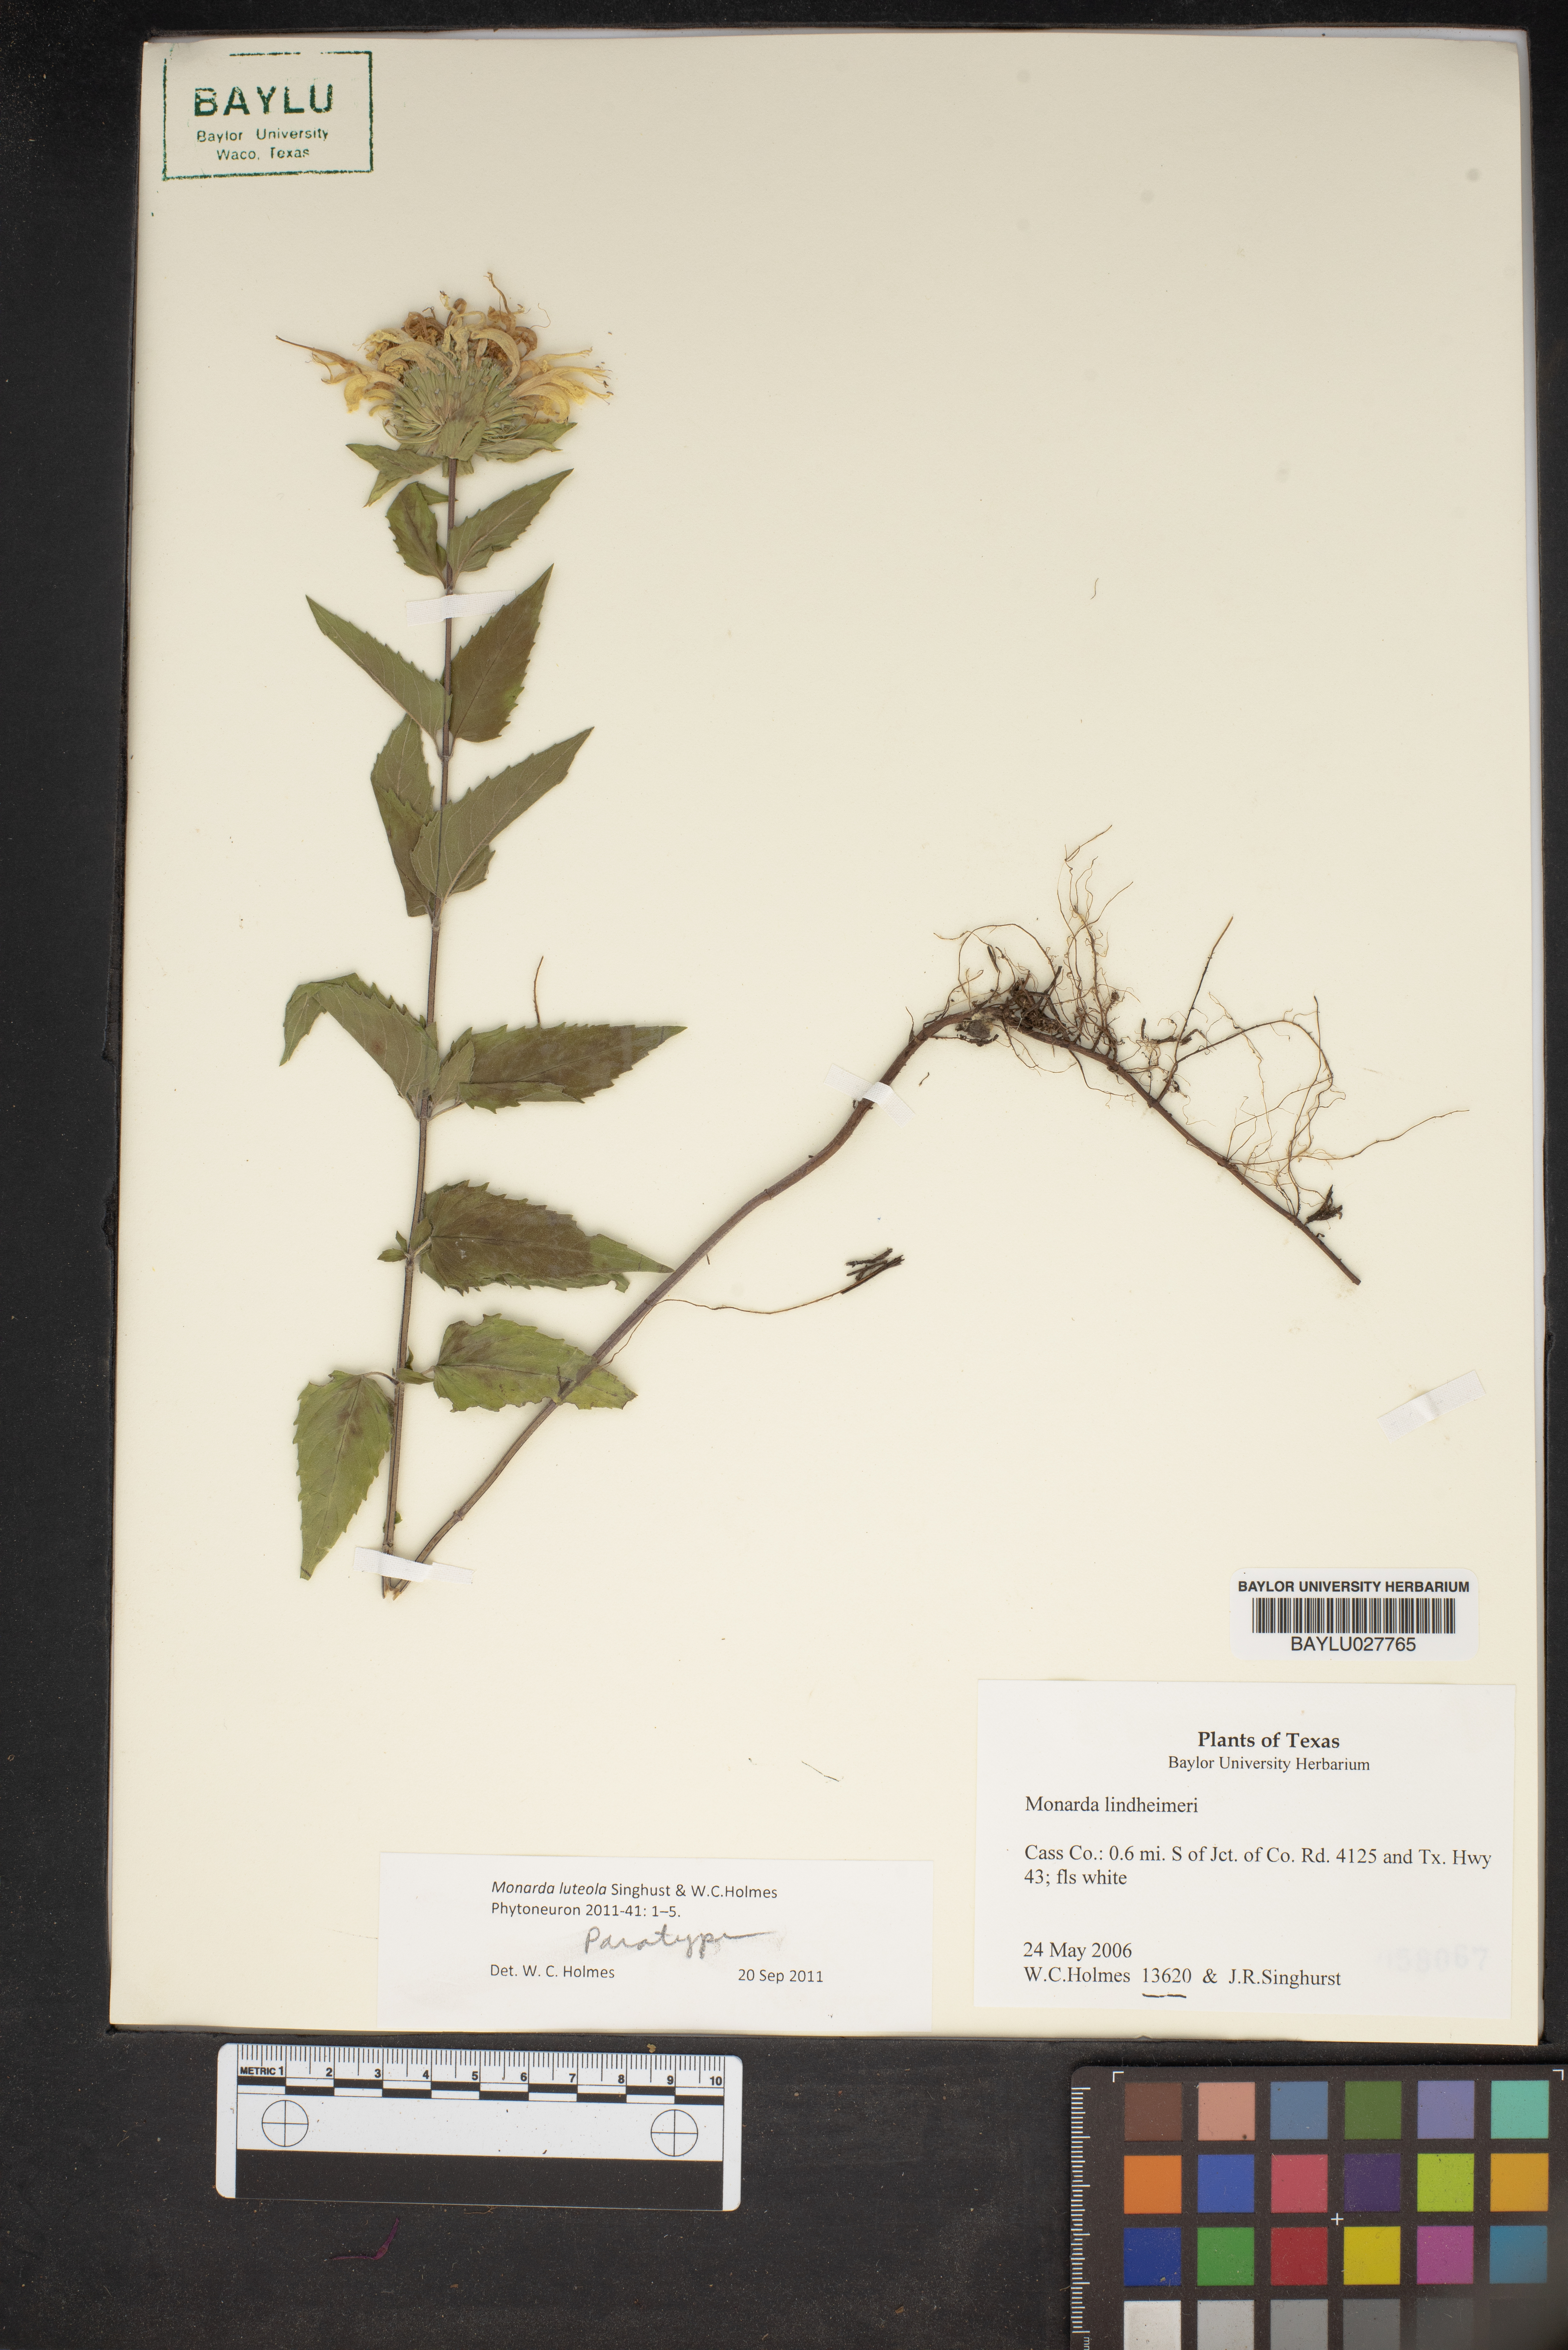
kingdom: Plantae
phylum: Tracheophyta
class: Magnoliopsida
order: Lamiales
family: Lamiaceae
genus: Monarda
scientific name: Monarda lindheimeri
